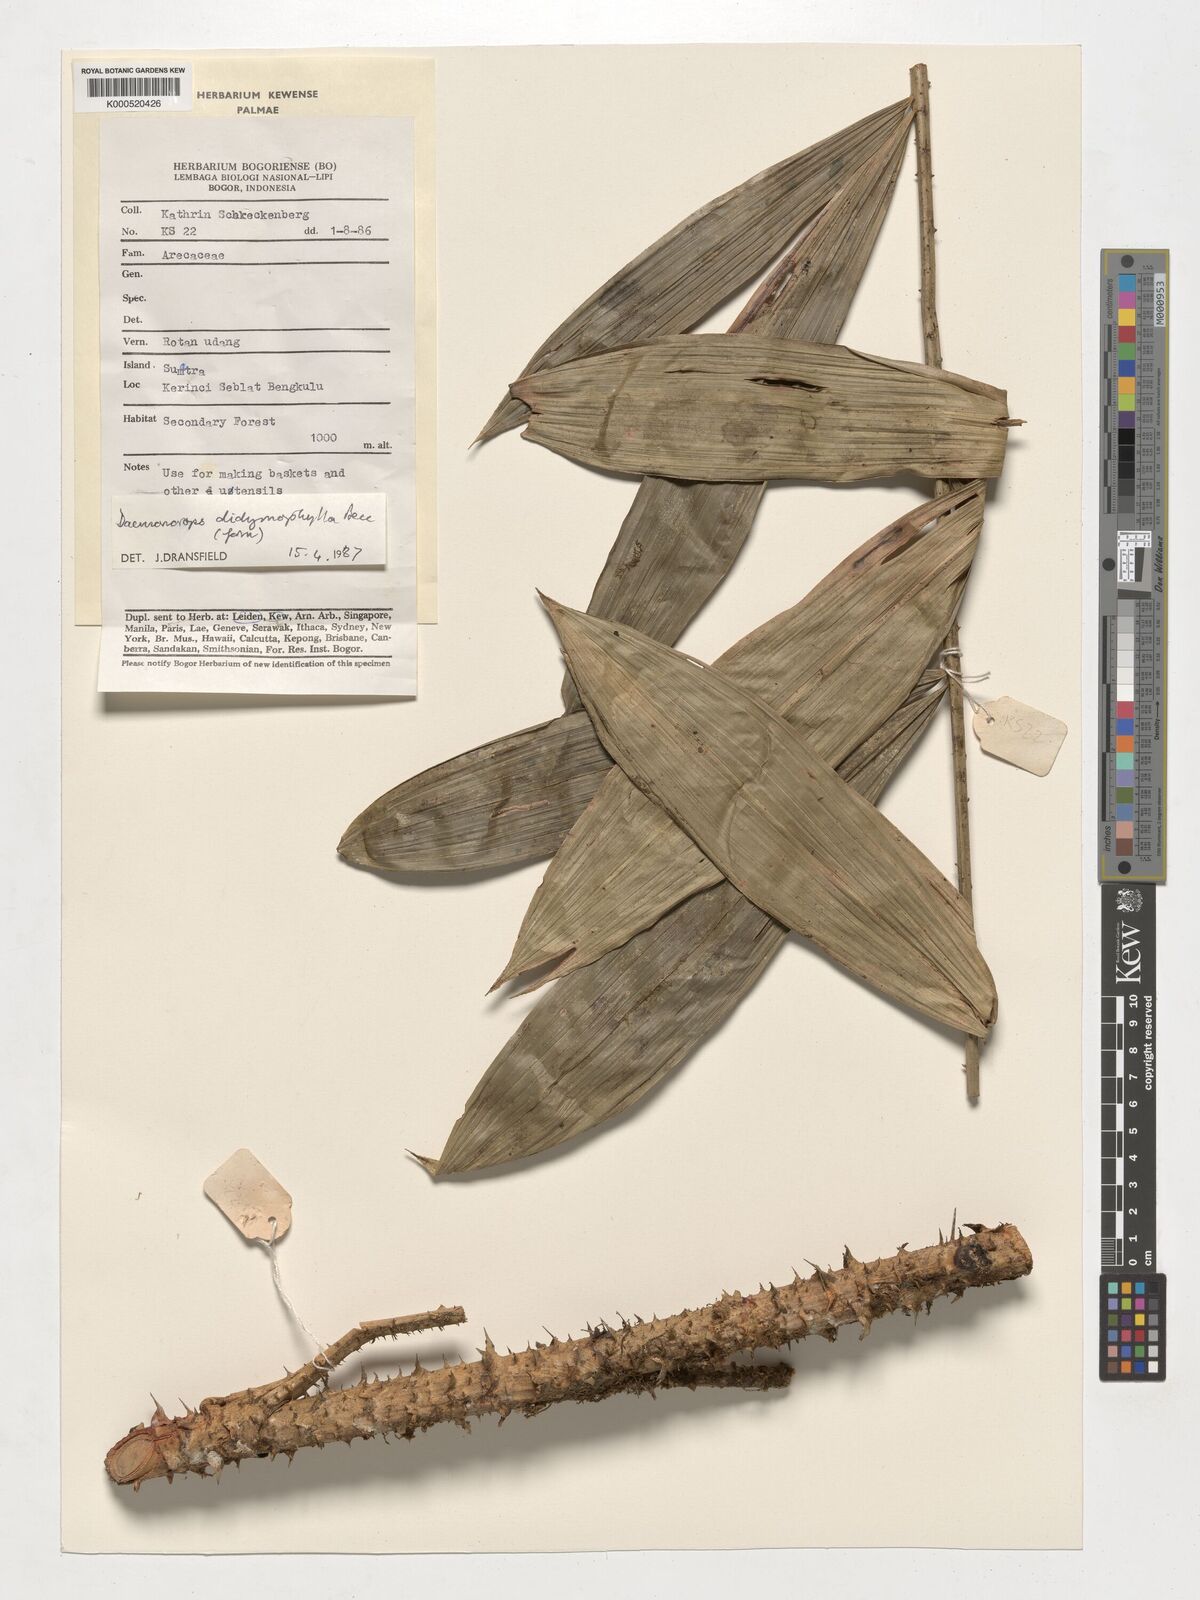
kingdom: Plantae
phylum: Tracheophyta
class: Liliopsida
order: Arecales
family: Arecaceae
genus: Calamus
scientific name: Calamus gracilipes
